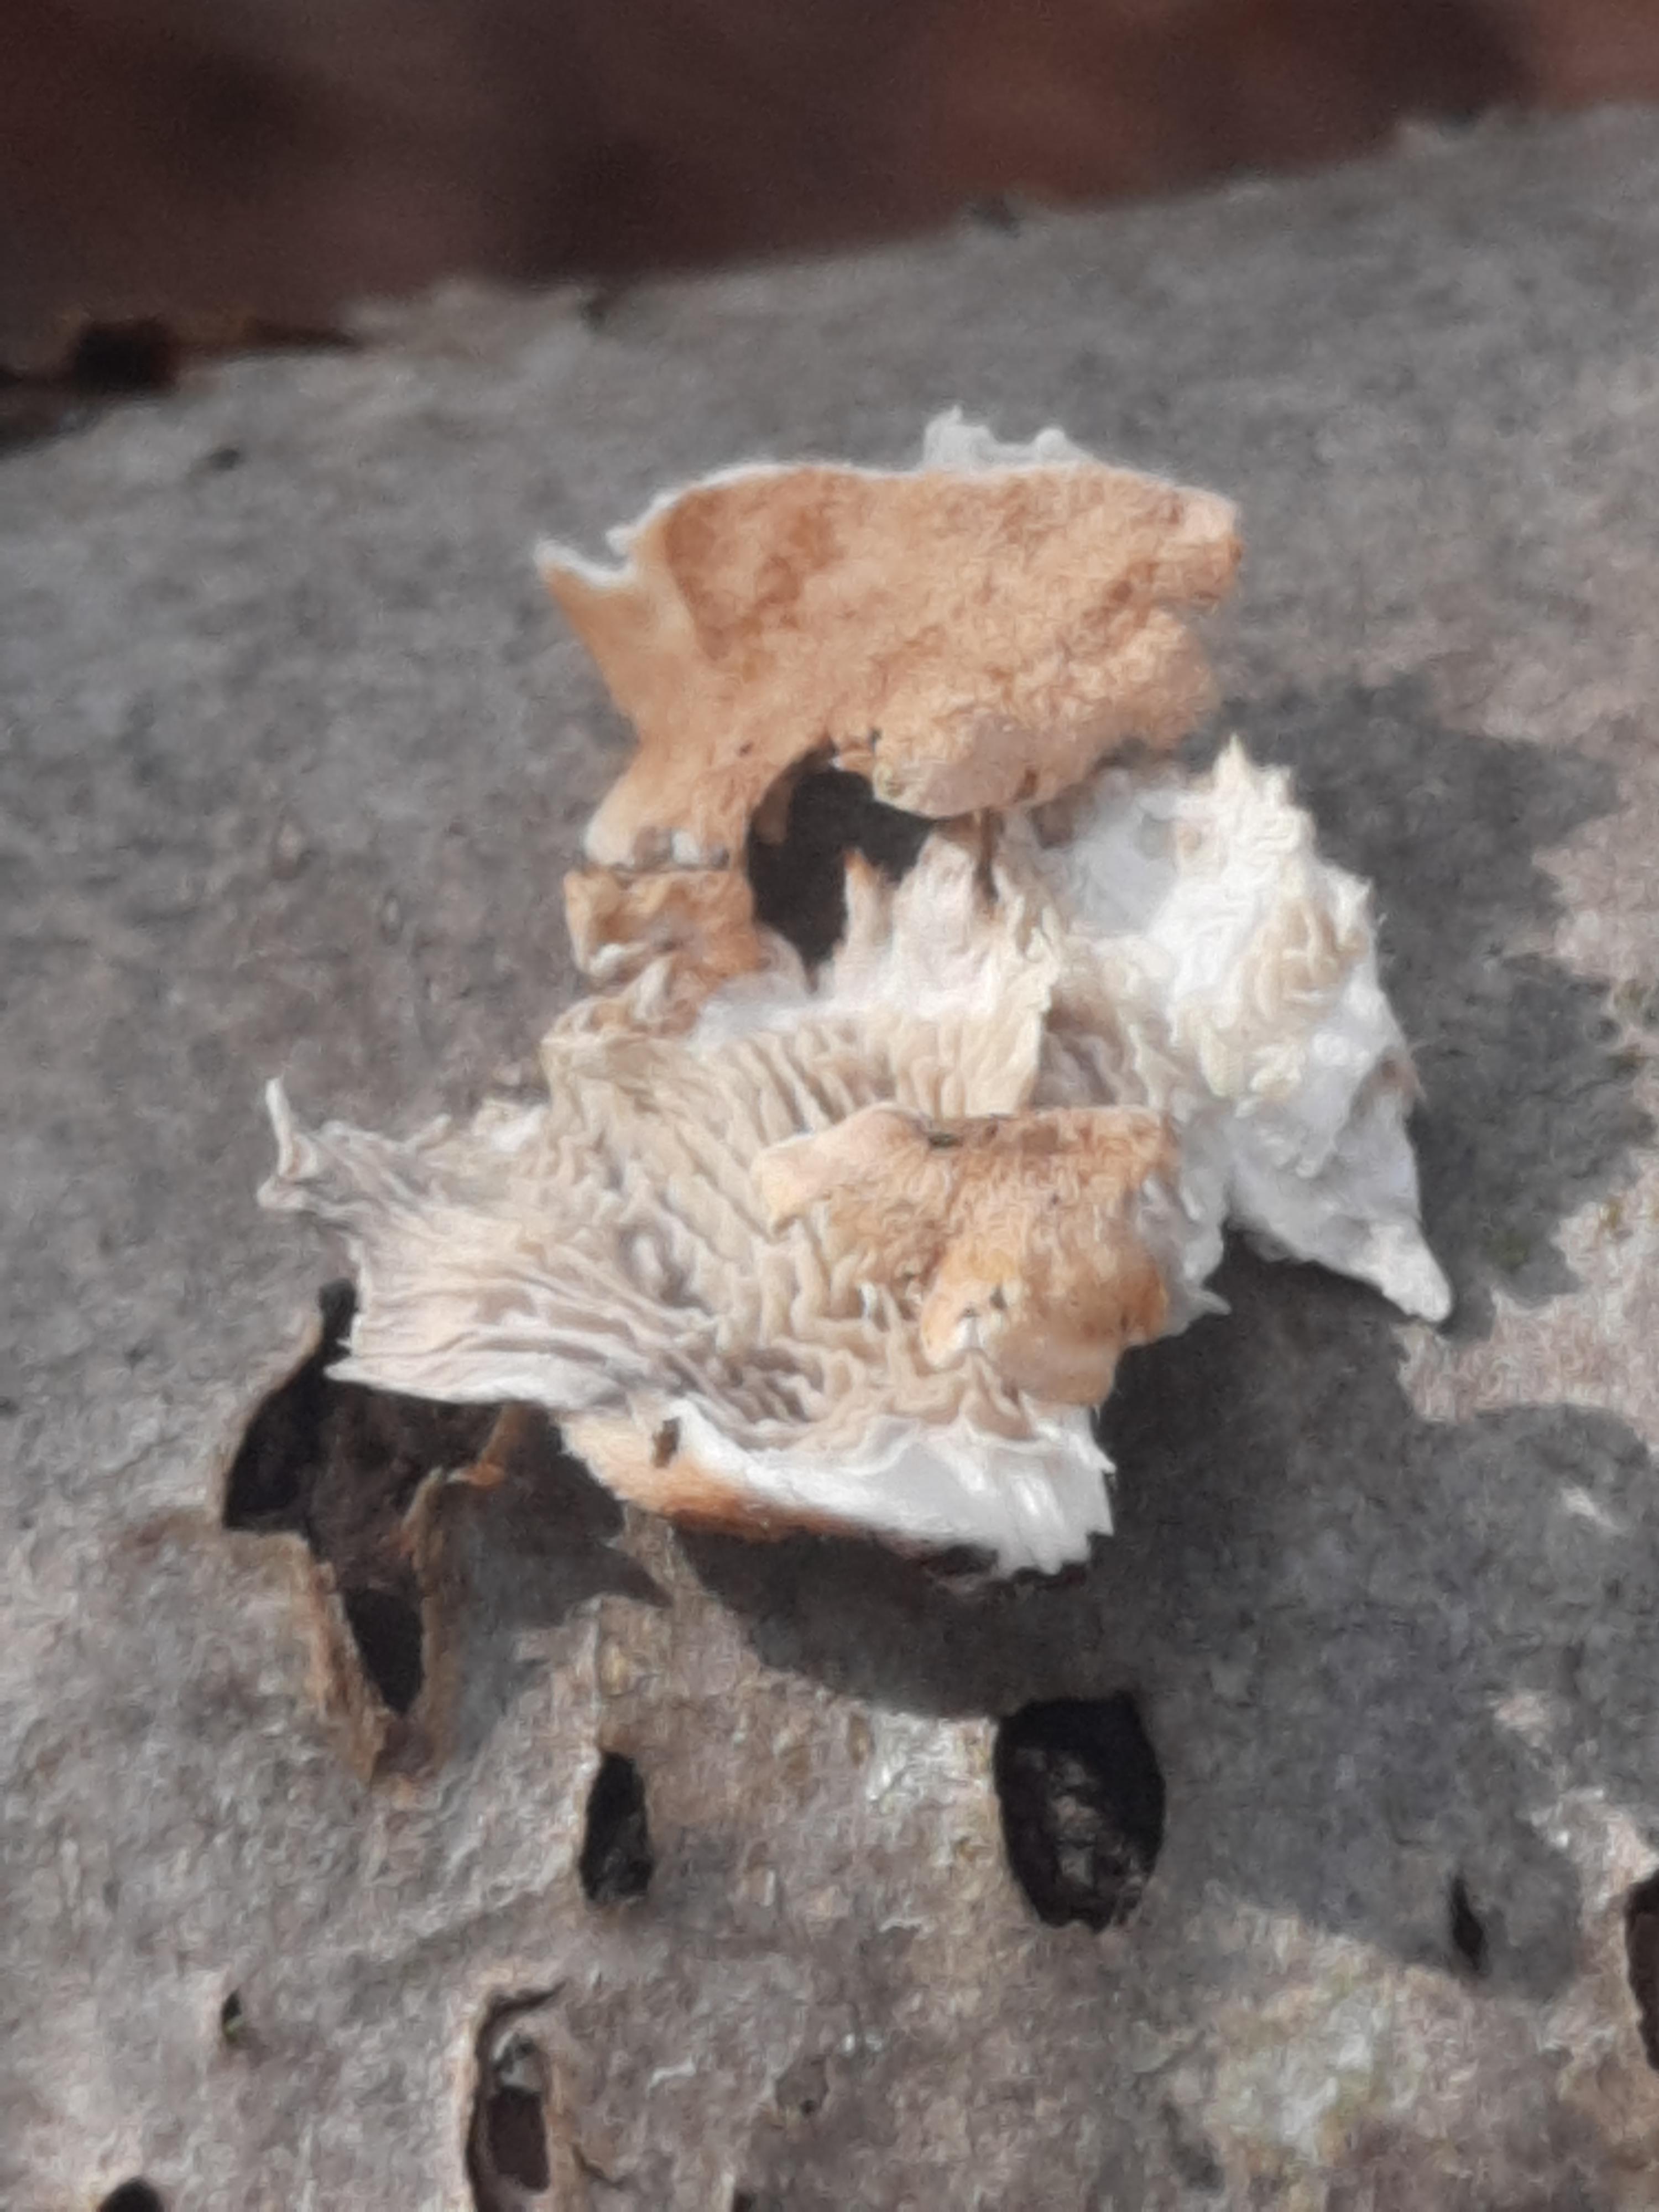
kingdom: Fungi
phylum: Basidiomycota
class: Agaricomycetes
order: Amylocorticiales
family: Amylocorticiaceae
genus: Plicaturopsis
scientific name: Plicaturopsis crispa
